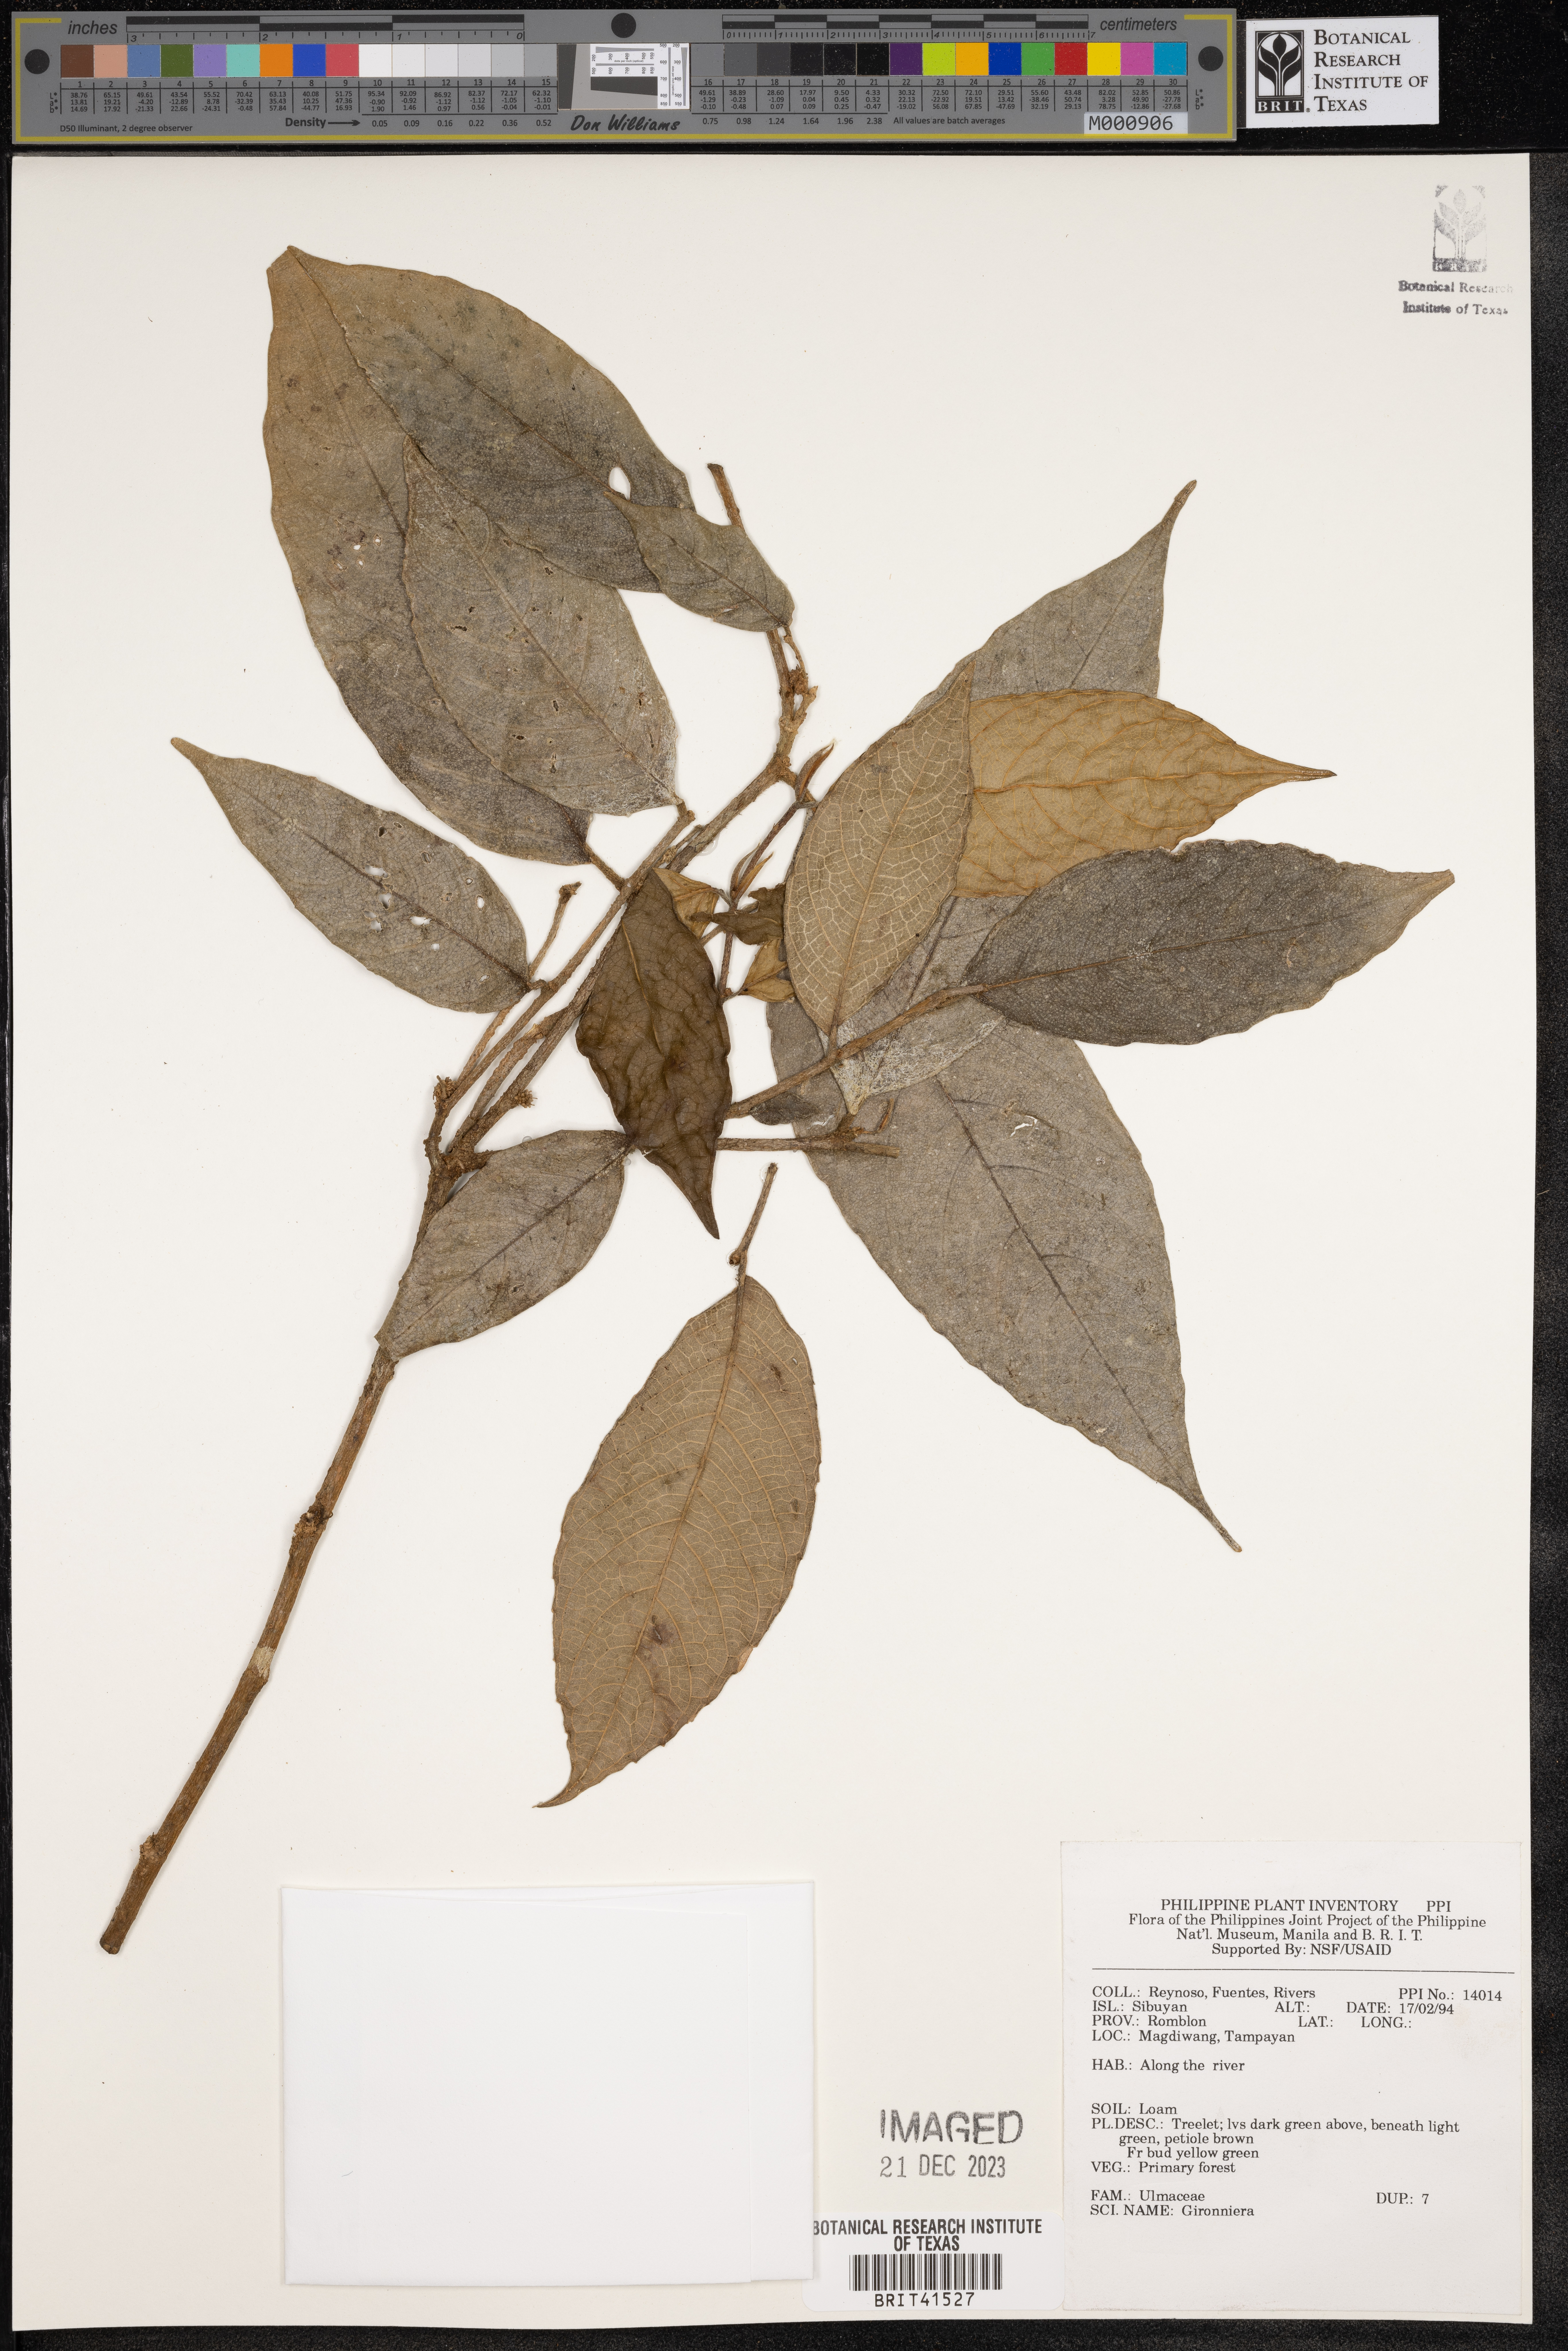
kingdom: Plantae
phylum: Tracheophyta
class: Magnoliopsida
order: Rosales
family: Cannabaceae
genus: Gironniera
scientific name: Gironniera
